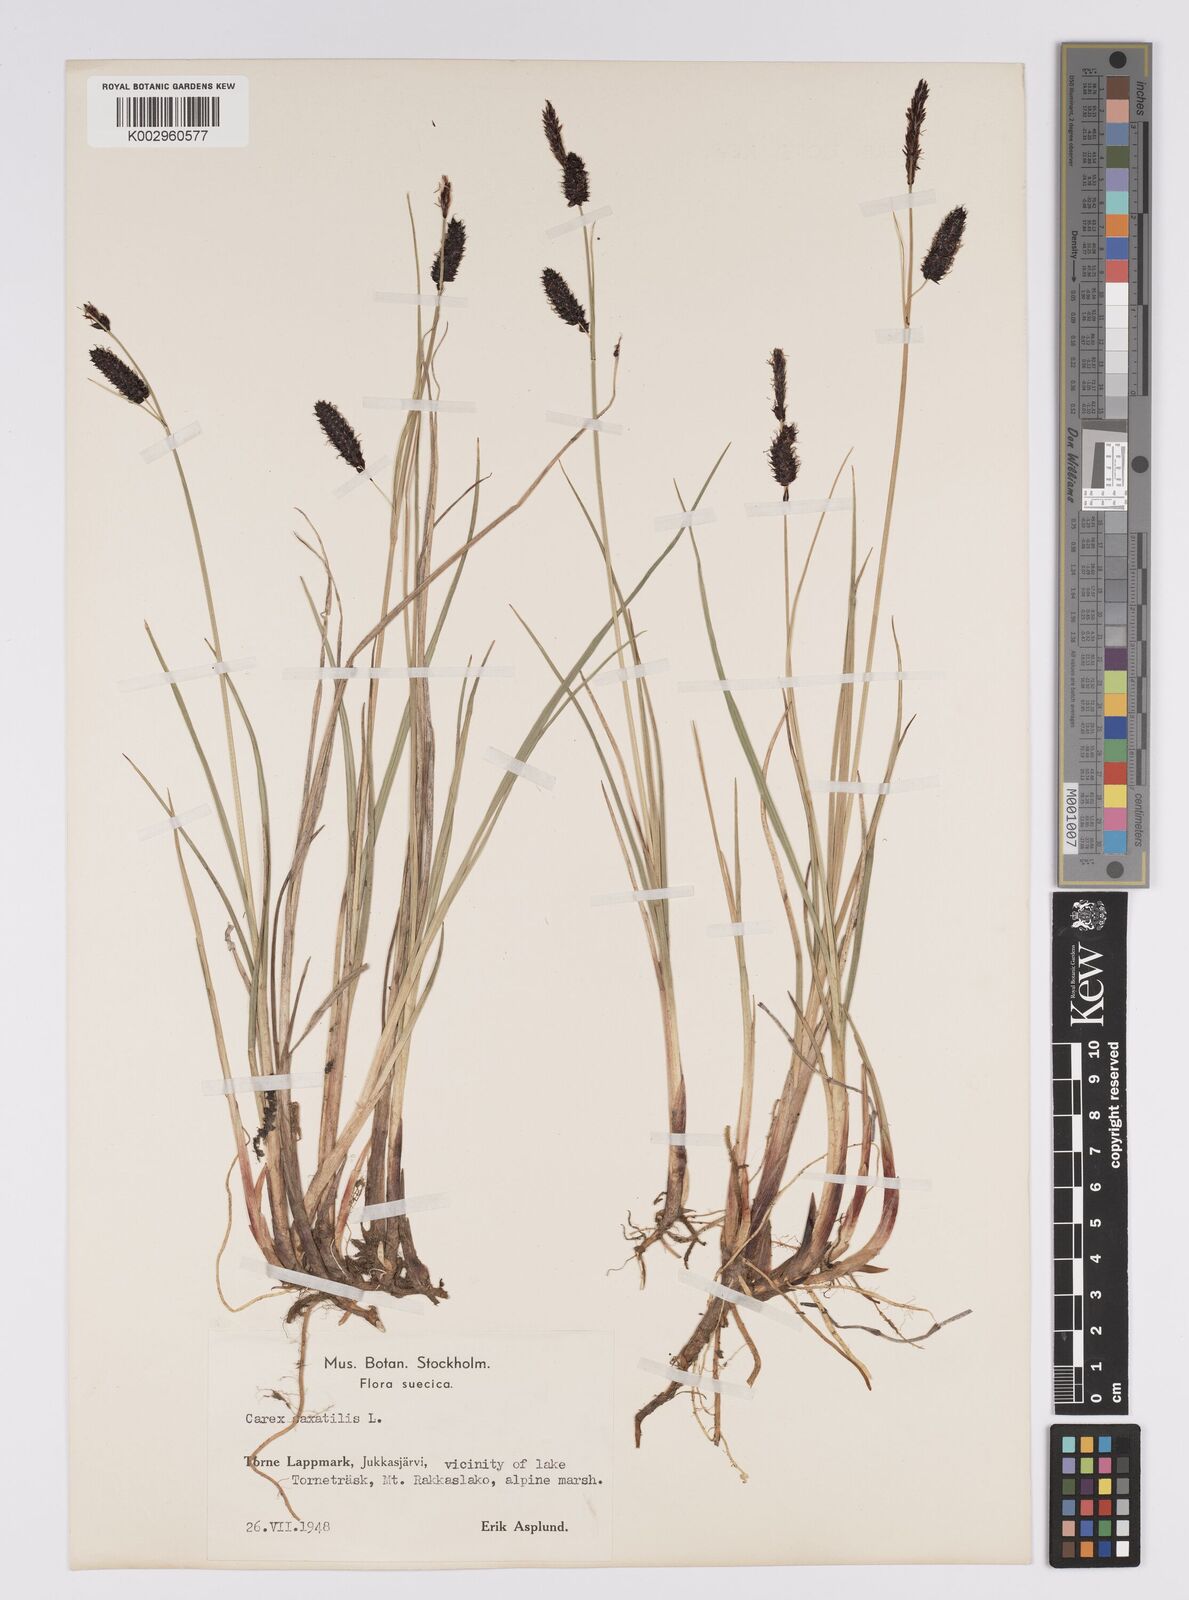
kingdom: Plantae
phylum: Tracheophyta
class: Liliopsida
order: Poales
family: Cyperaceae
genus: Carex
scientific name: Carex saxatilis
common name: Russet sedge
